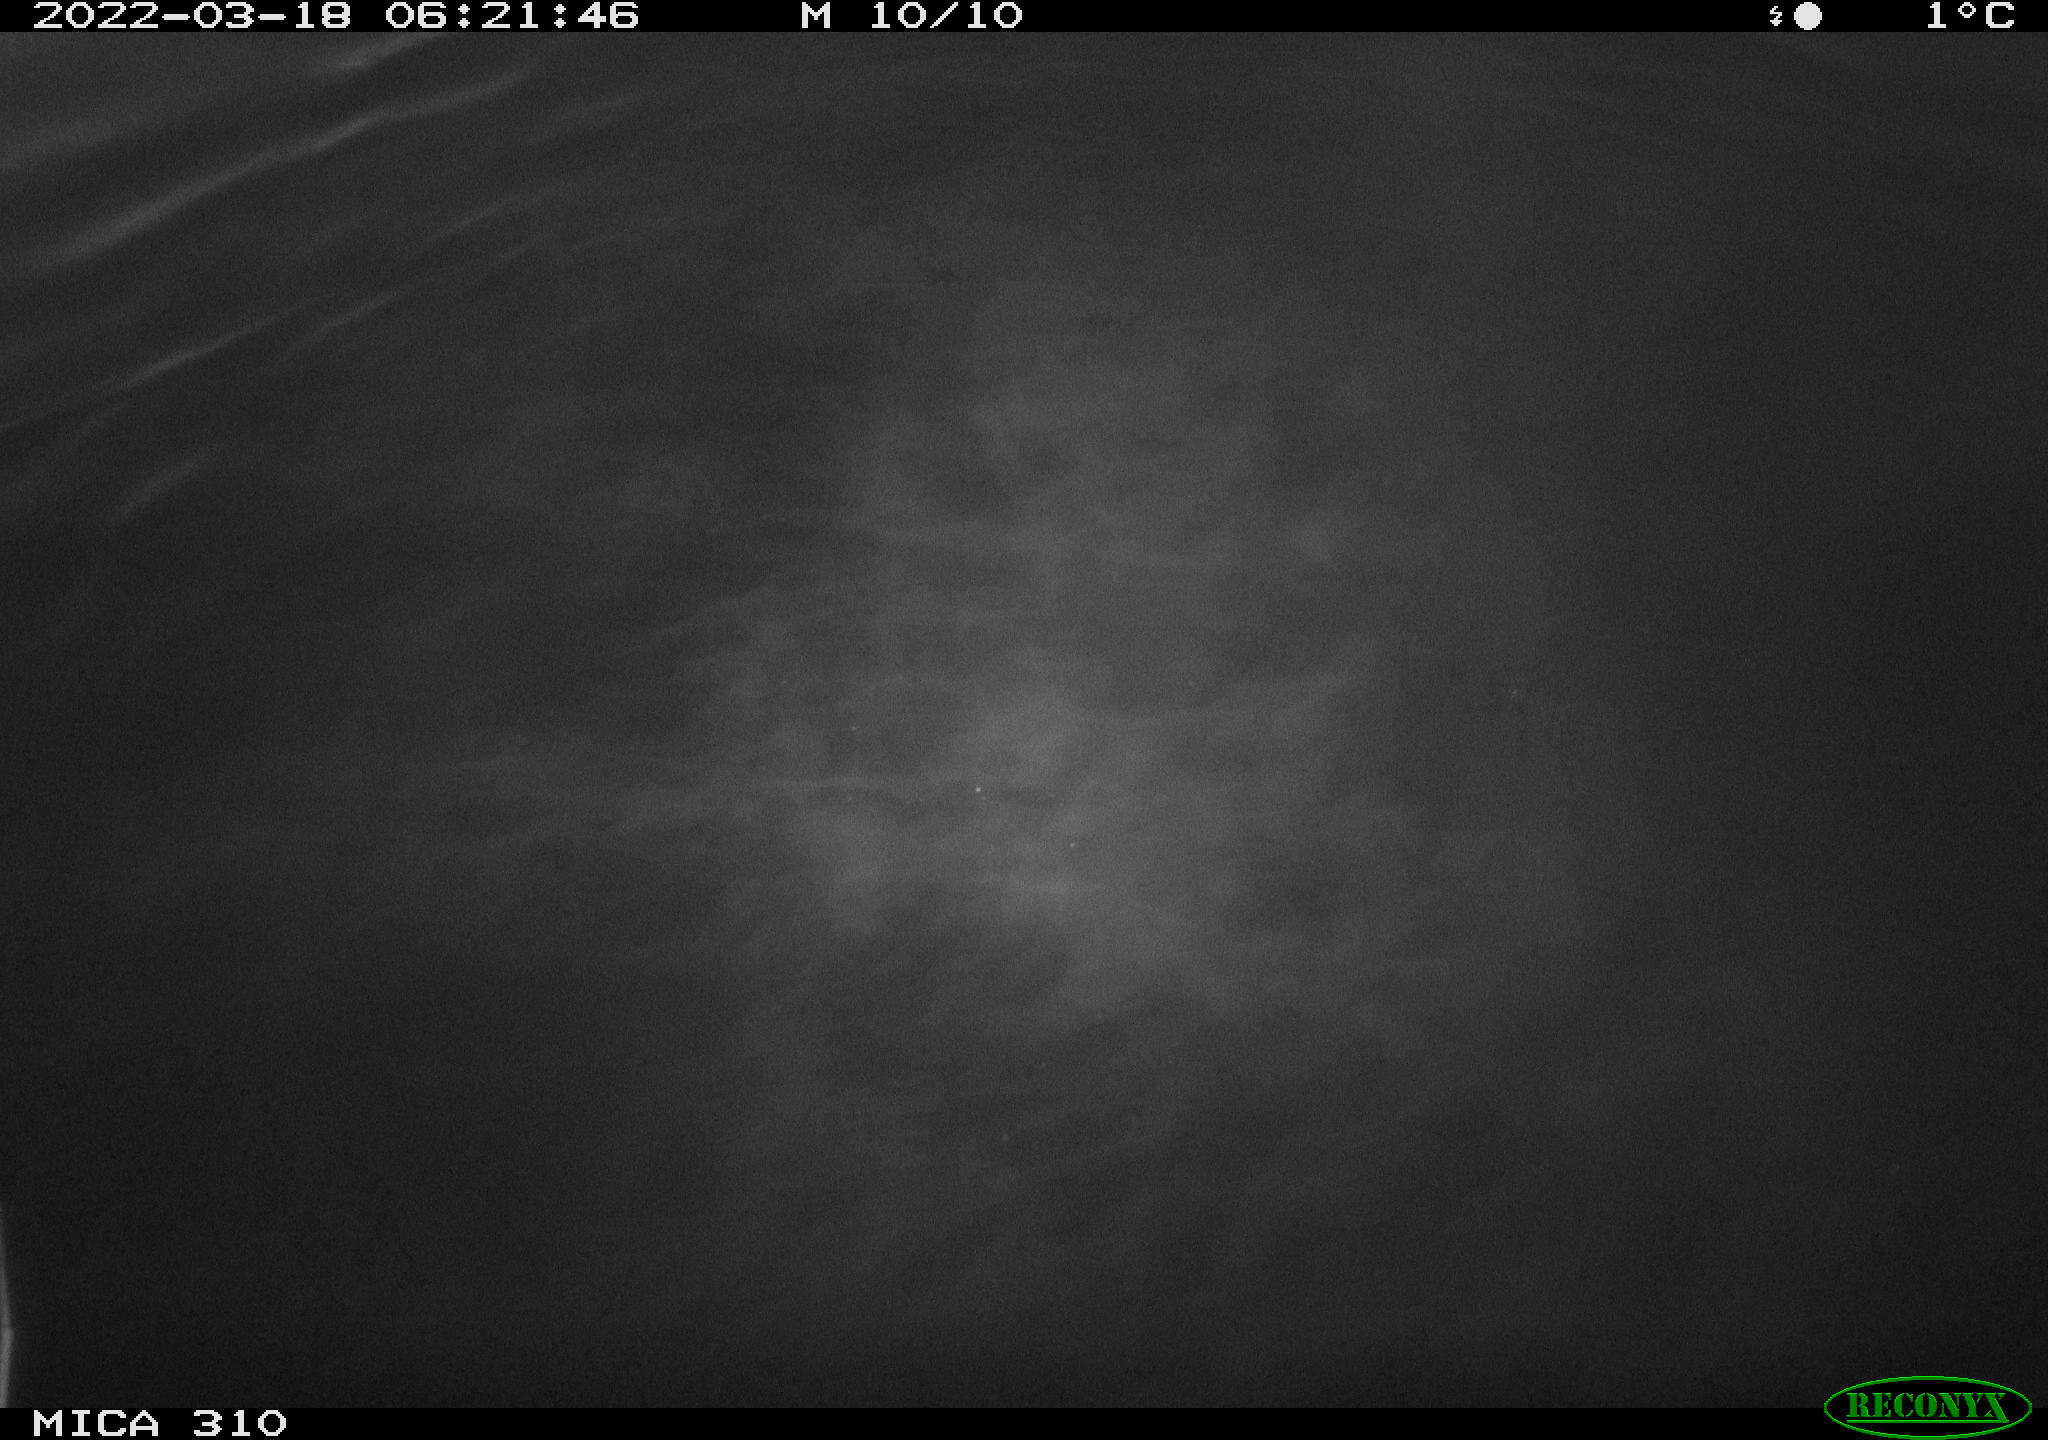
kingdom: Animalia
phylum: Chordata
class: Aves
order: Anseriformes
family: Anatidae
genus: Anas
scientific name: Anas platyrhynchos
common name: Mallard
